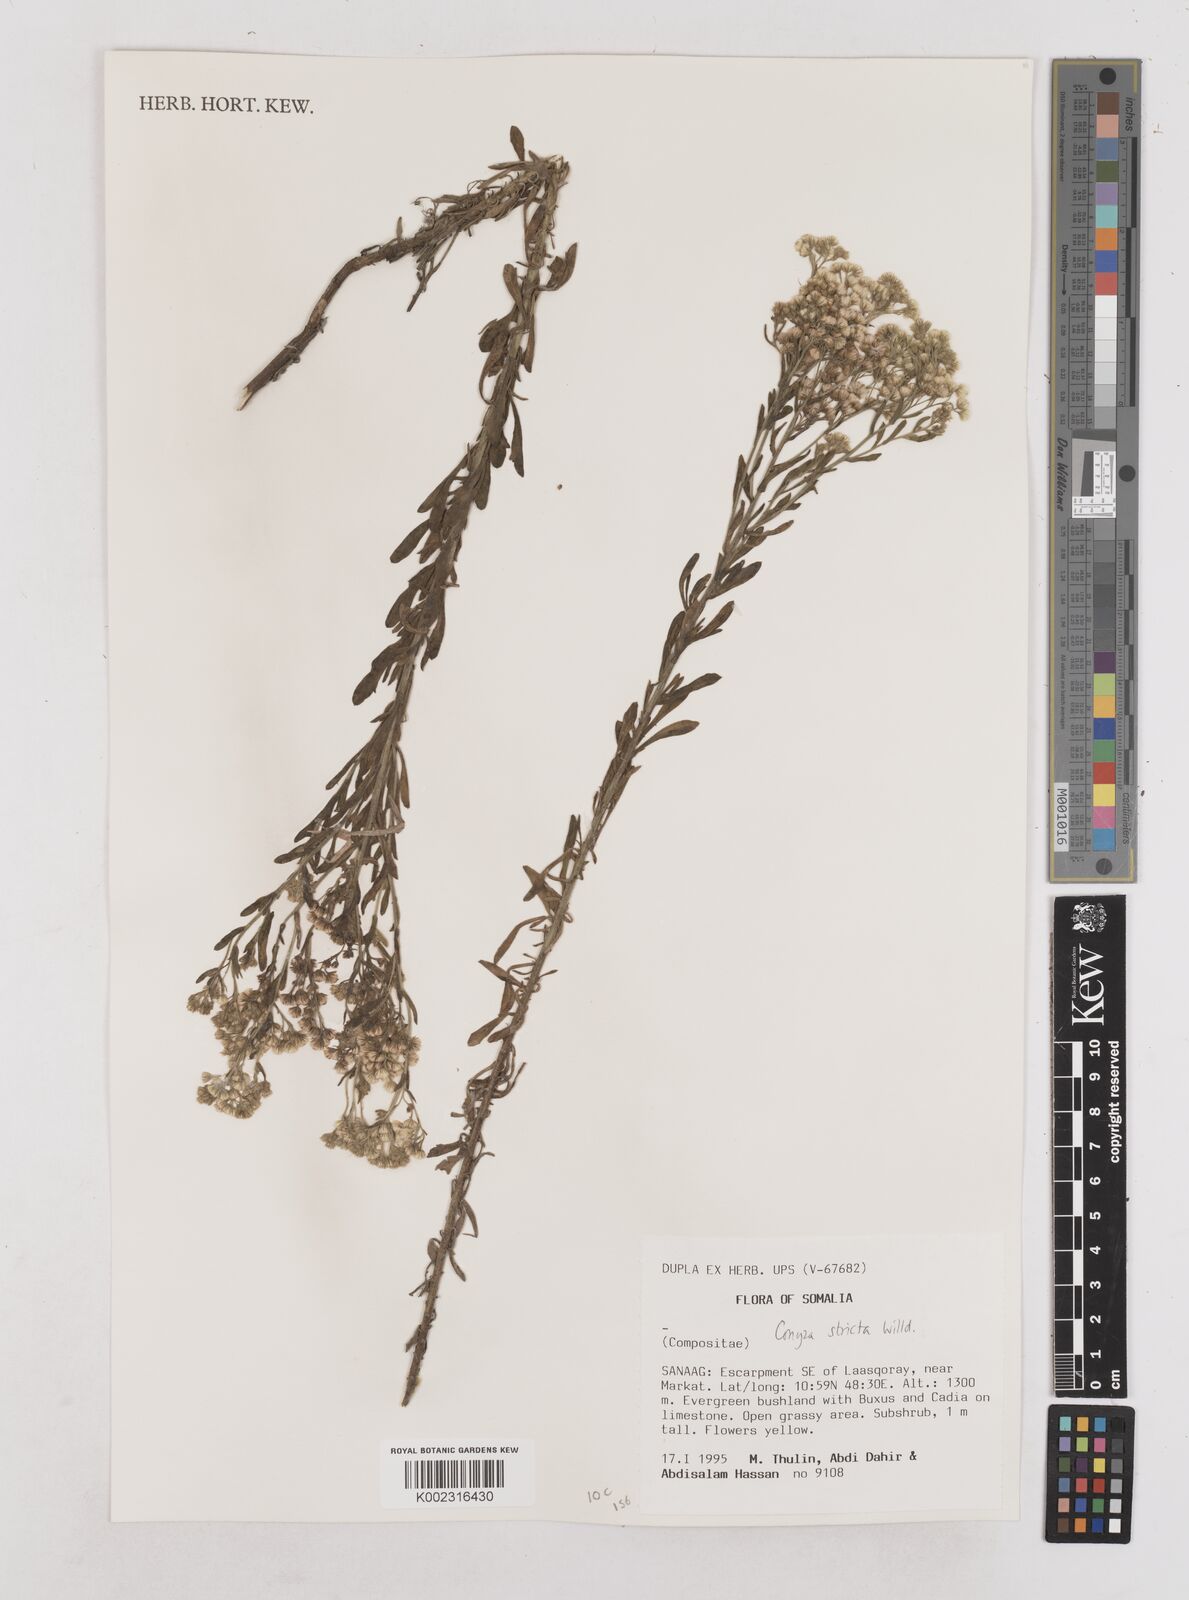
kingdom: Plantae
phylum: Tracheophyta
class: Magnoliopsida
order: Asterales
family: Asteraceae
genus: Nidorella
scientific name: Nidorella triloba
